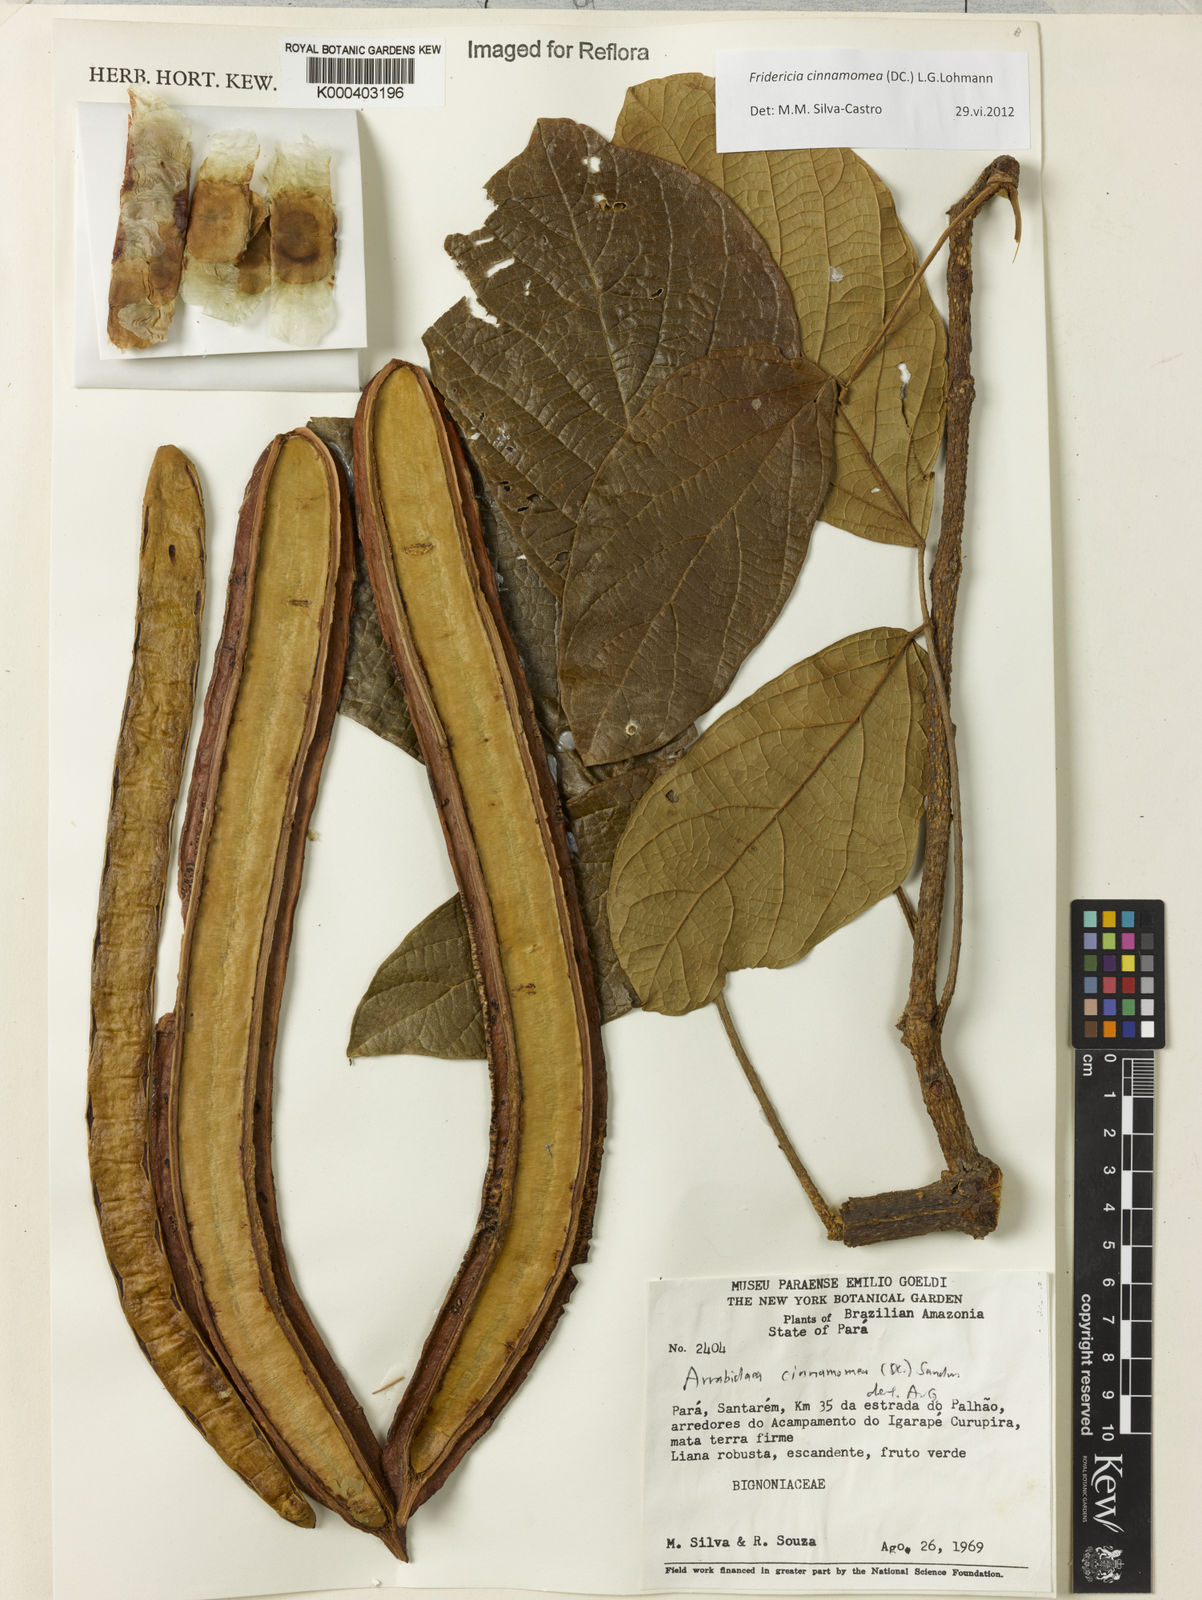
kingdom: Plantae
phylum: Tracheophyta
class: Magnoliopsida
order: Lamiales
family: Bignoniaceae
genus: Fridericia
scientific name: Fridericia cinnamomea
